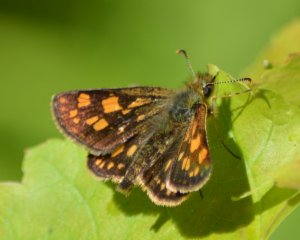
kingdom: Animalia
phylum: Arthropoda
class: Insecta
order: Lepidoptera
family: Hesperiidae
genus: Carterocephalus
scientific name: Carterocephalus palaemon
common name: Chequered Skipper
